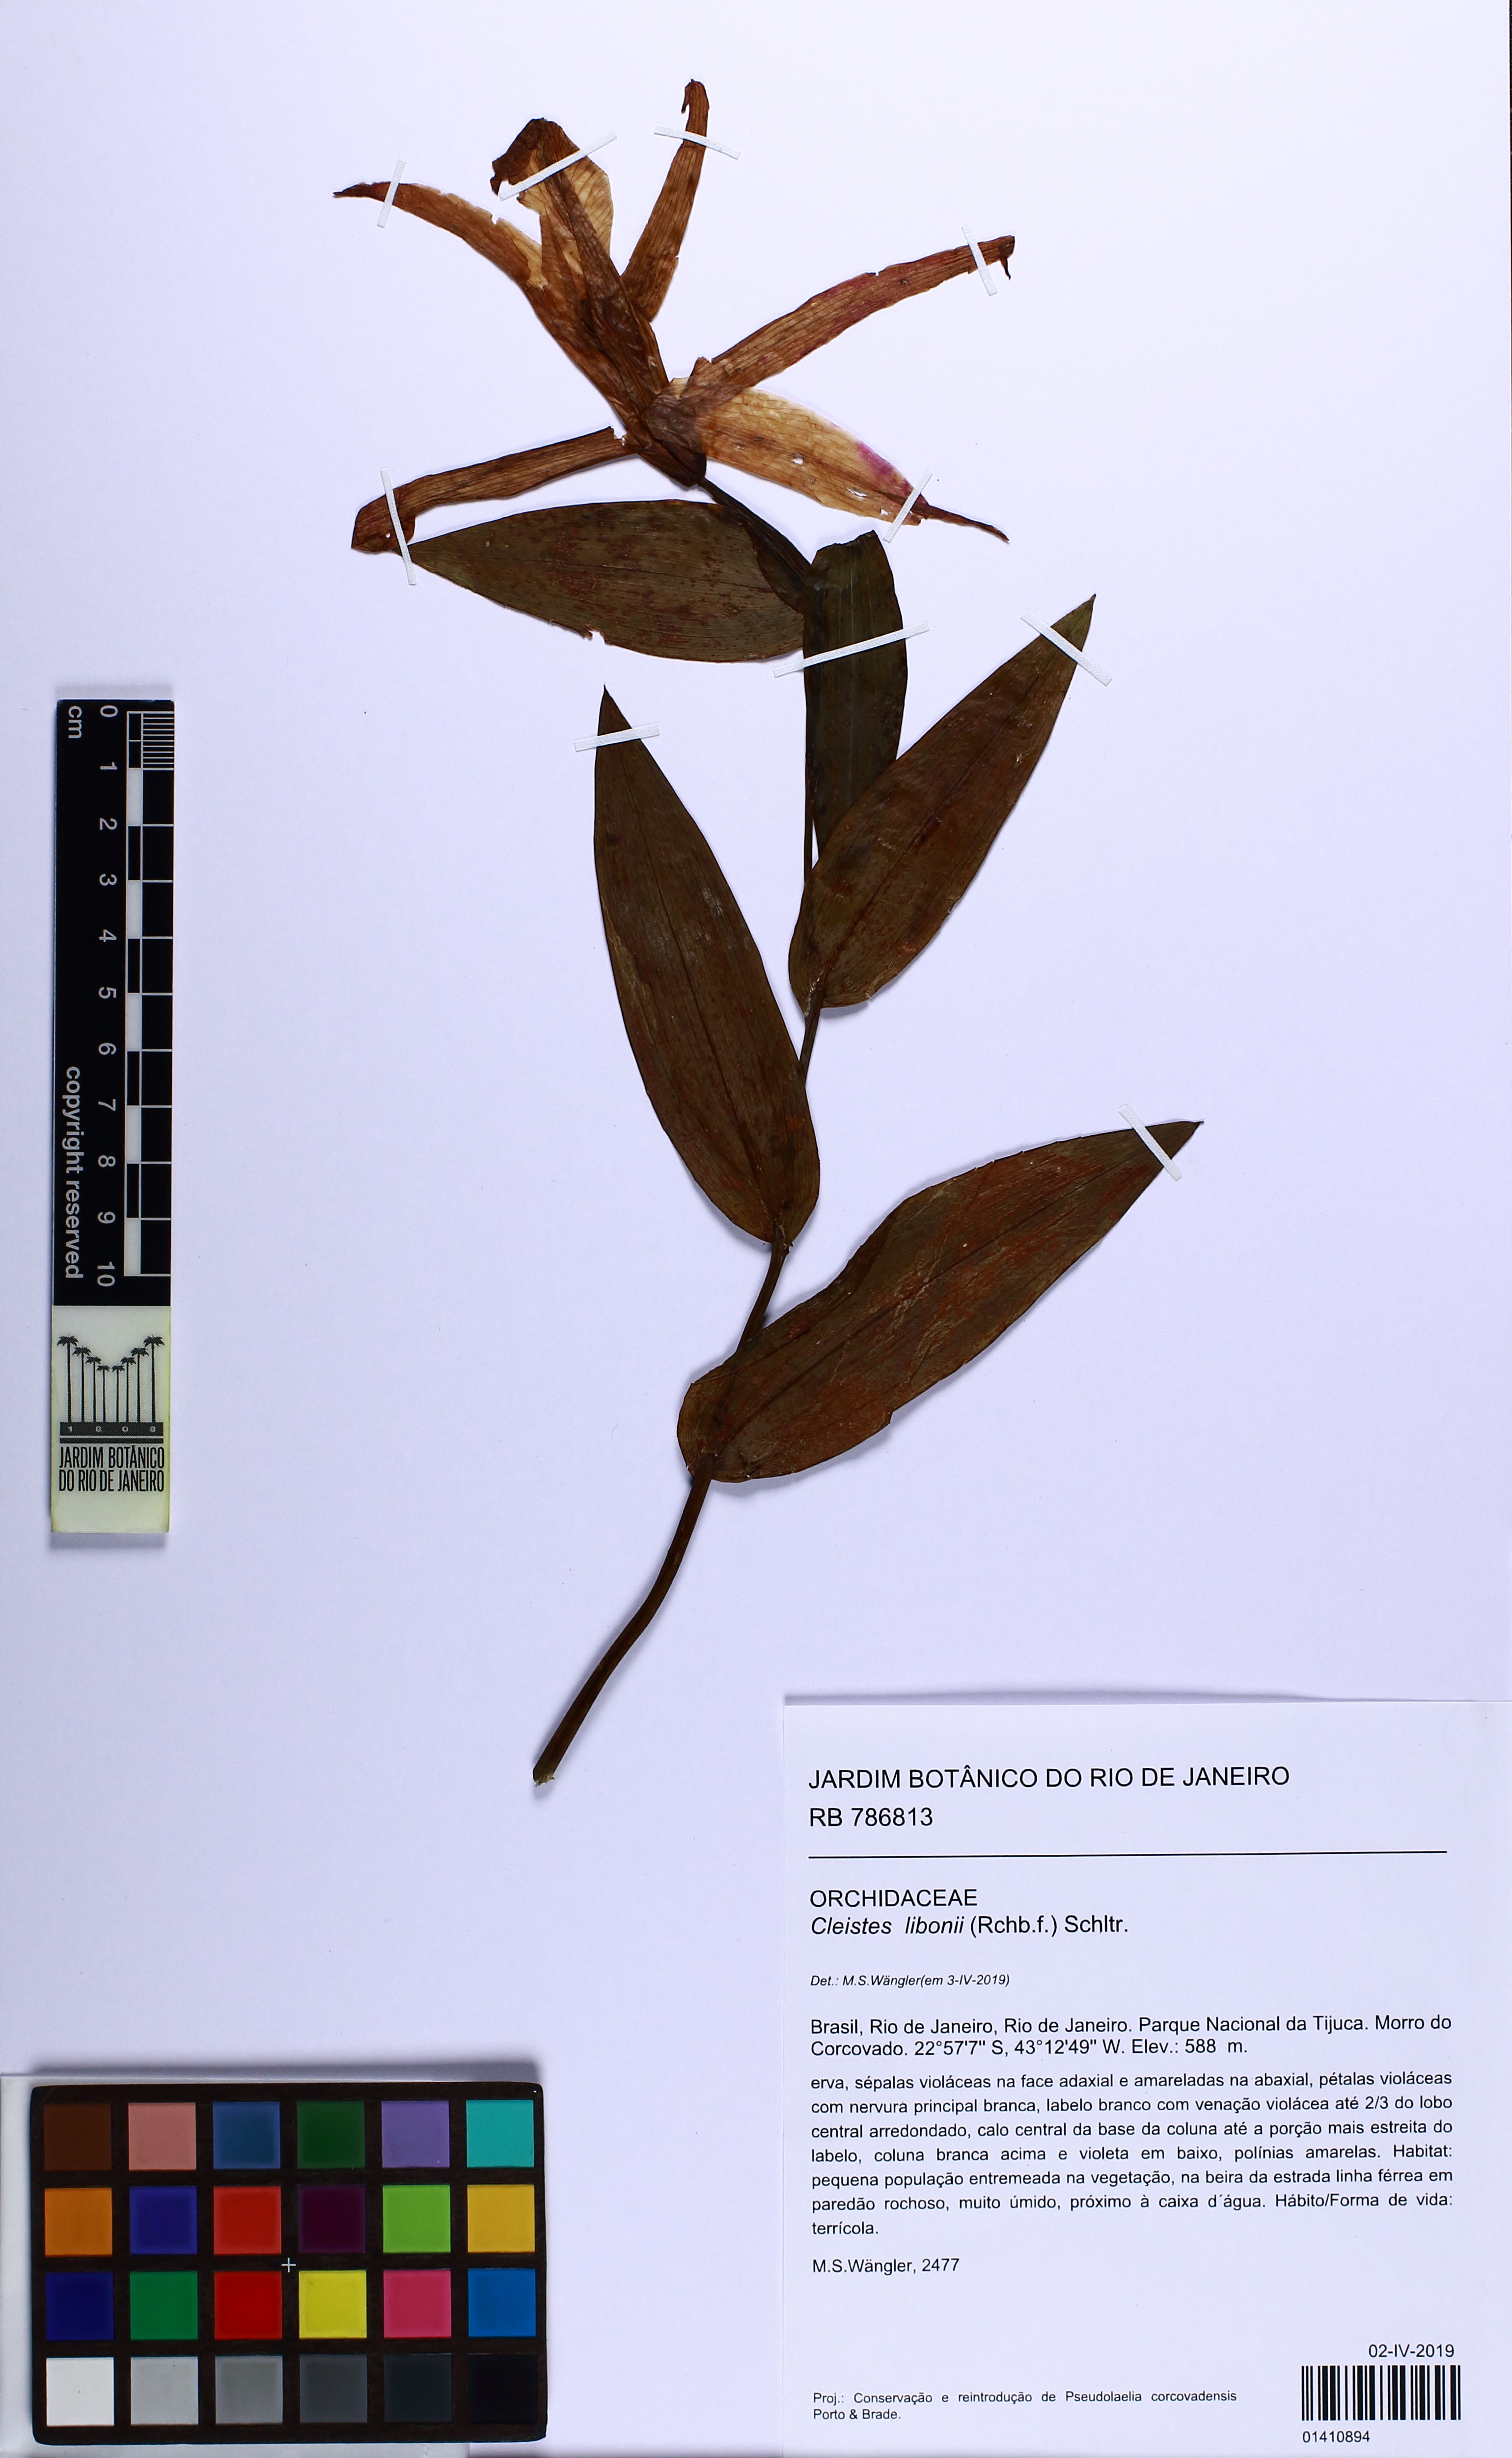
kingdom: Plantae
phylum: Tracheophyta
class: Liliopsida
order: Asparagales
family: Orchidaceae
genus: Cleistes
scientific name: Cleistes libonii
